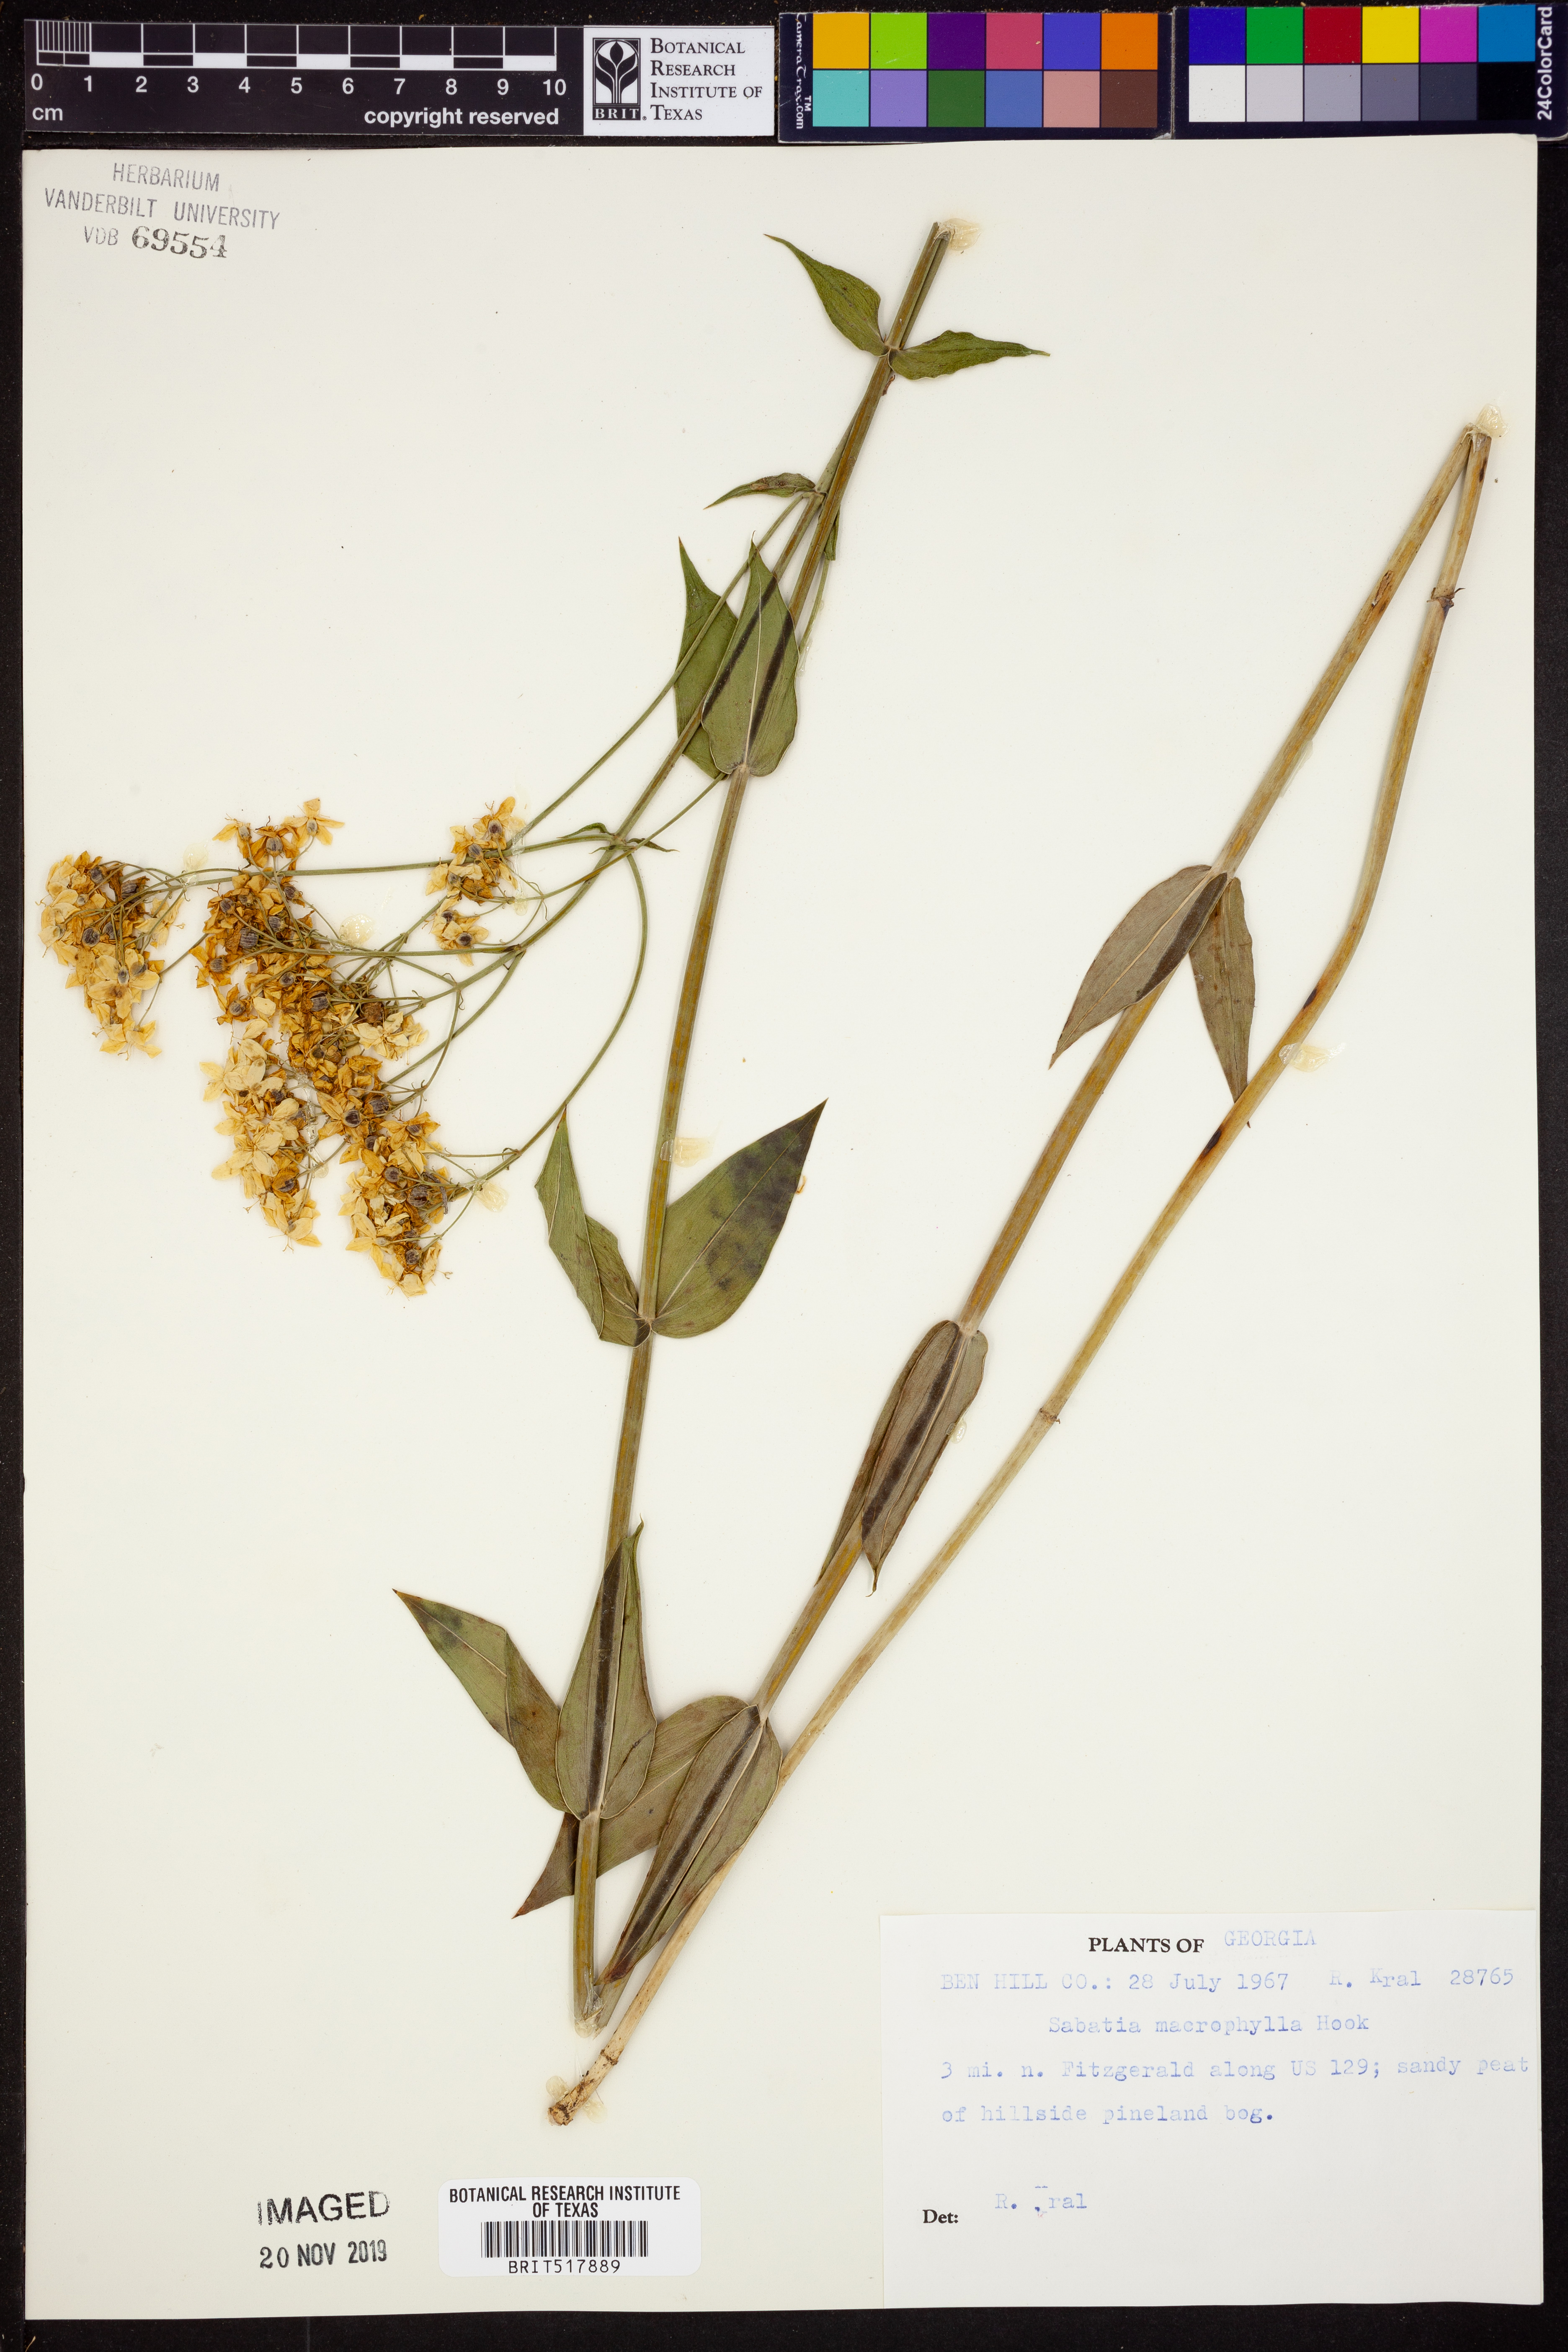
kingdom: Plantae
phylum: Tracheophyta
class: Magnoliopsida
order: Gentianales
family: Gentianaceae
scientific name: Gentianaceae
